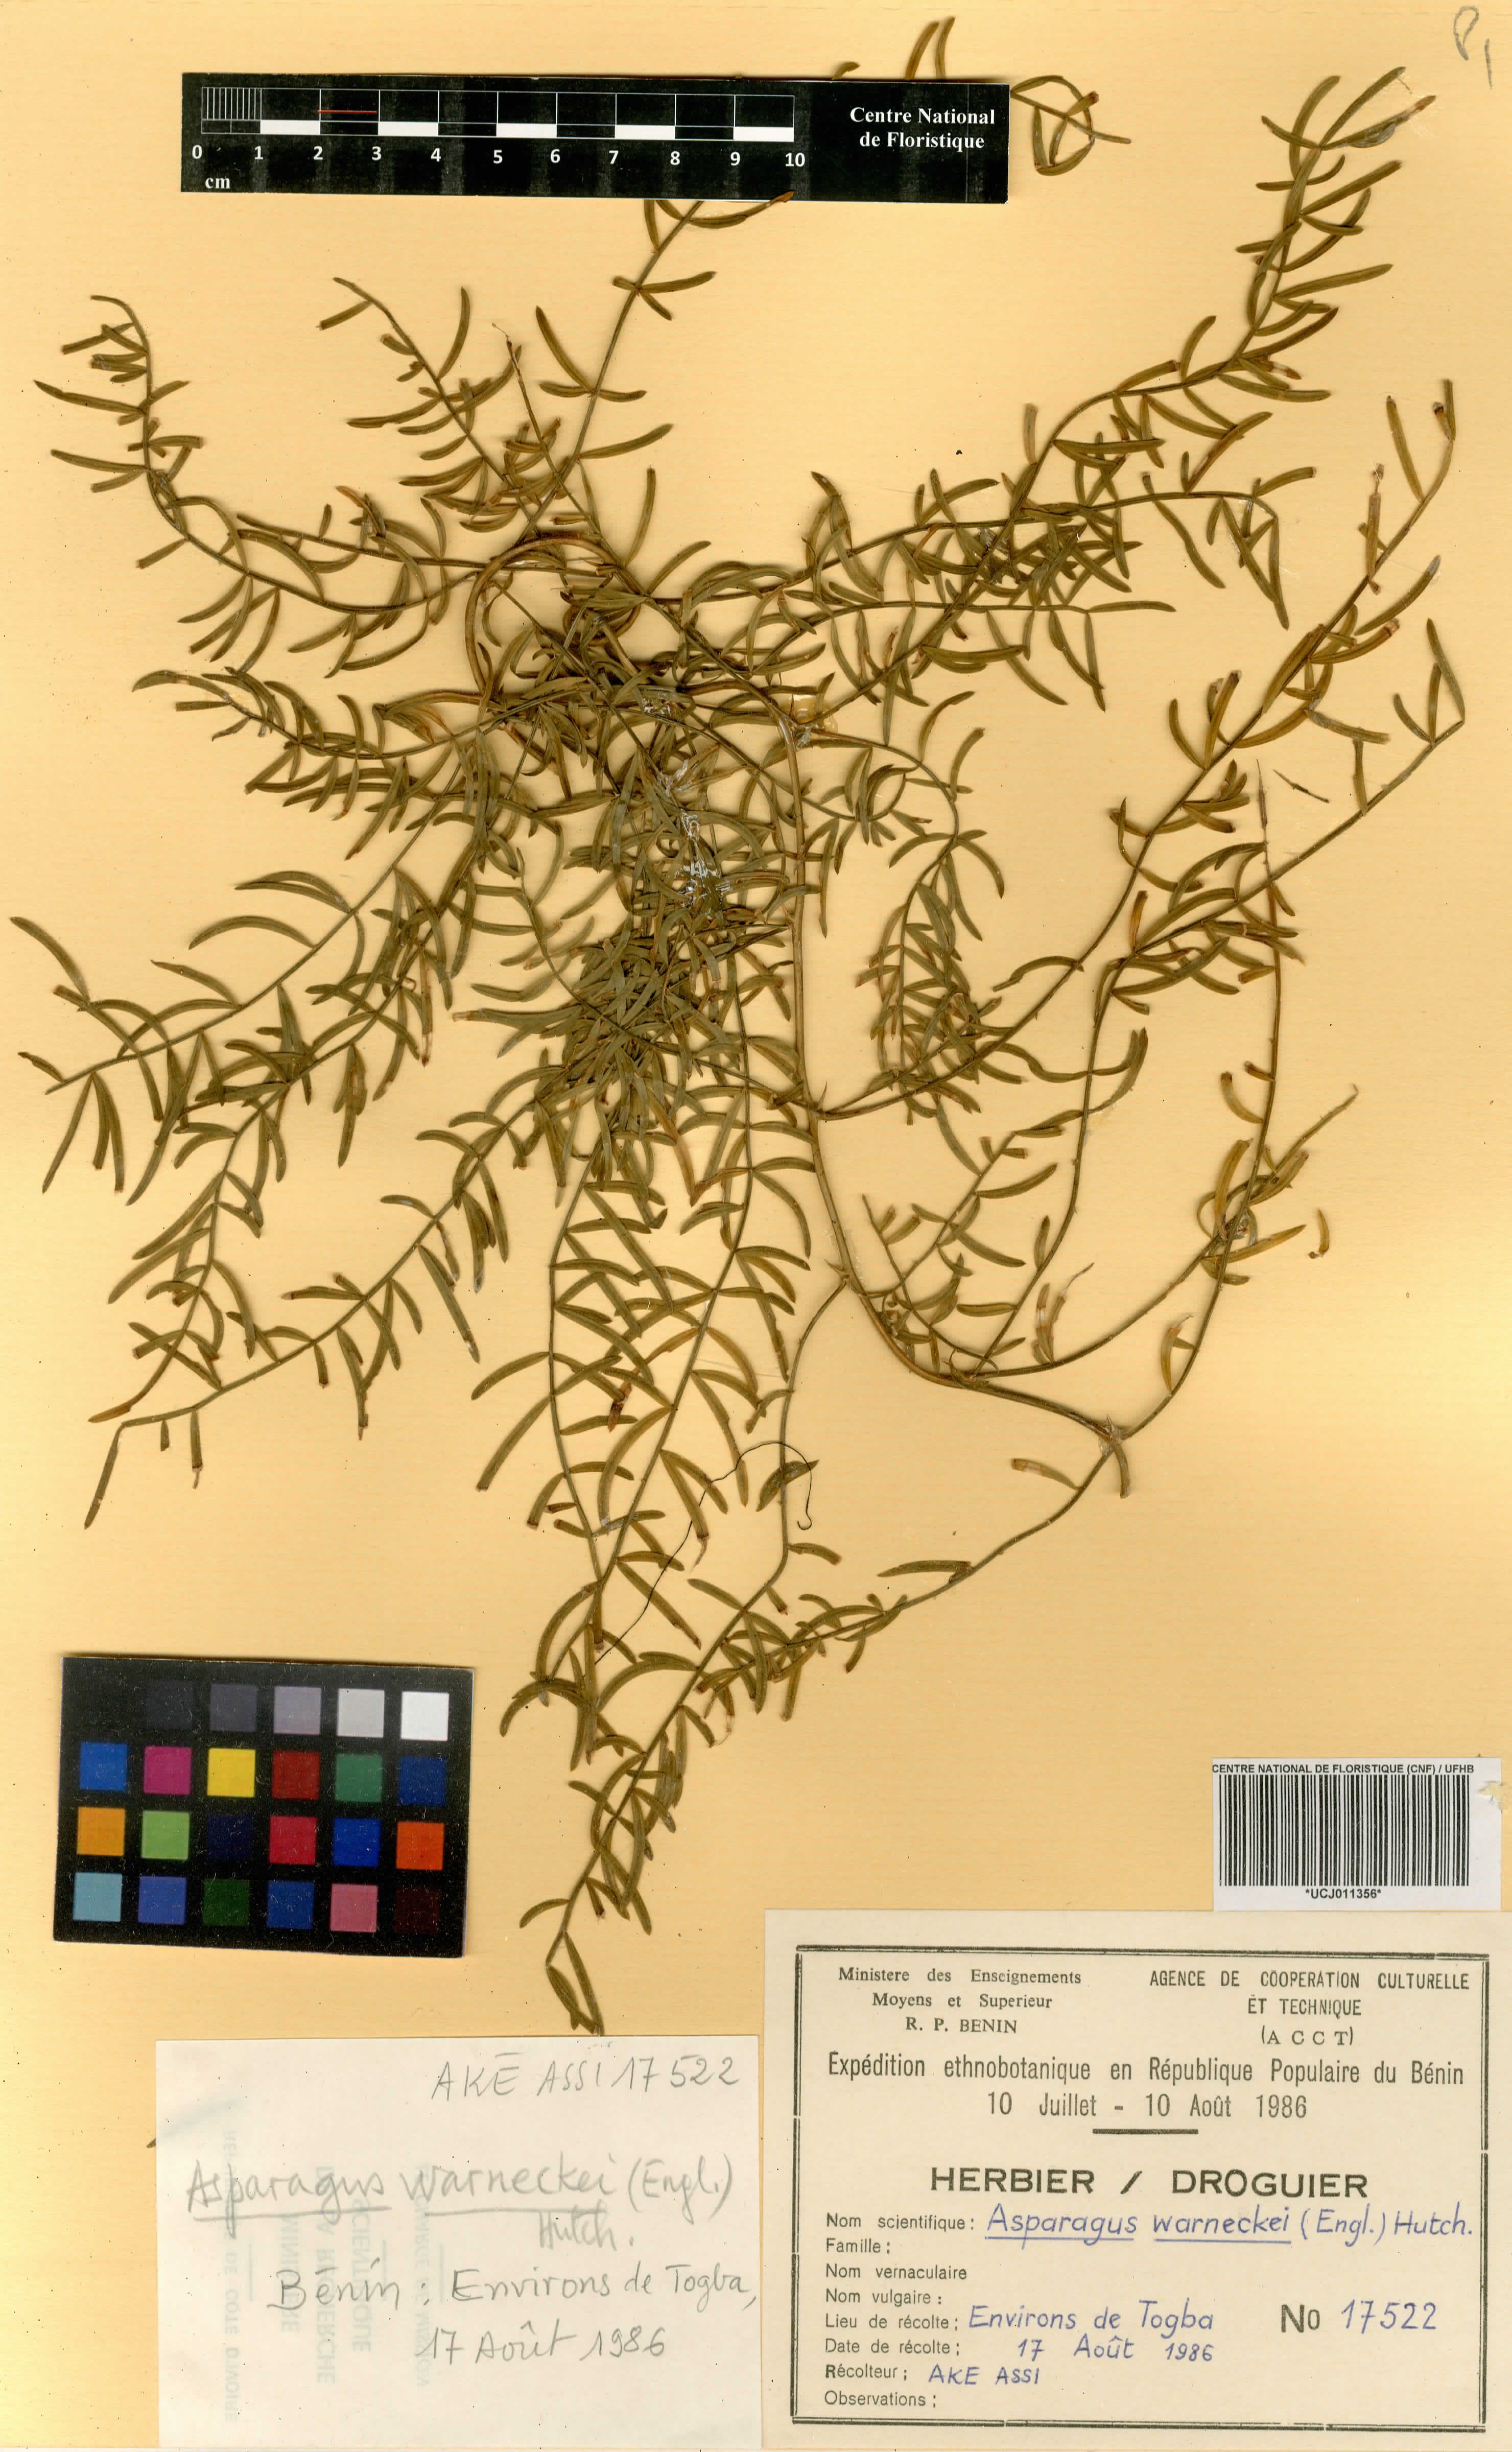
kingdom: Plantae
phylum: Tracheophyta
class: Liliopsida
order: Asparagales
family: Asparagaceae
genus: Asparagus
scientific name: Asparagus warneckei
